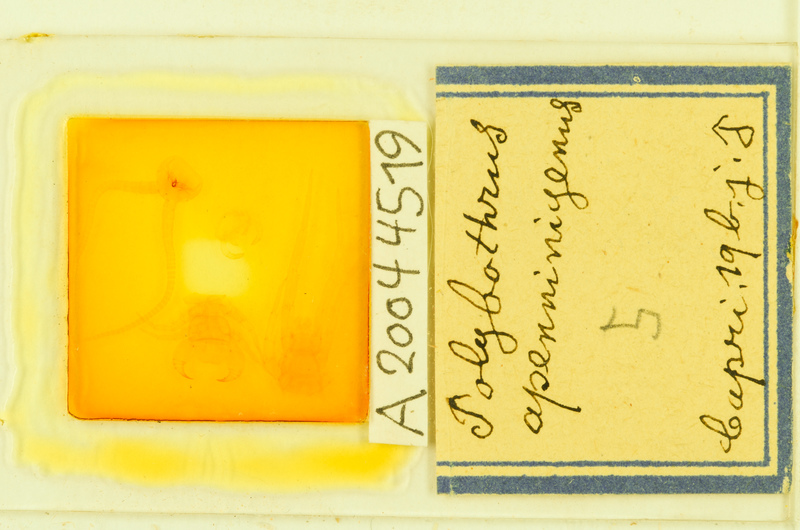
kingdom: Animalia
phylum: Arthropoda
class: Chilopoda
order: Lithobiomorpha
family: Lithobiidae
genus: Polybothrus
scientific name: Polybothrus
